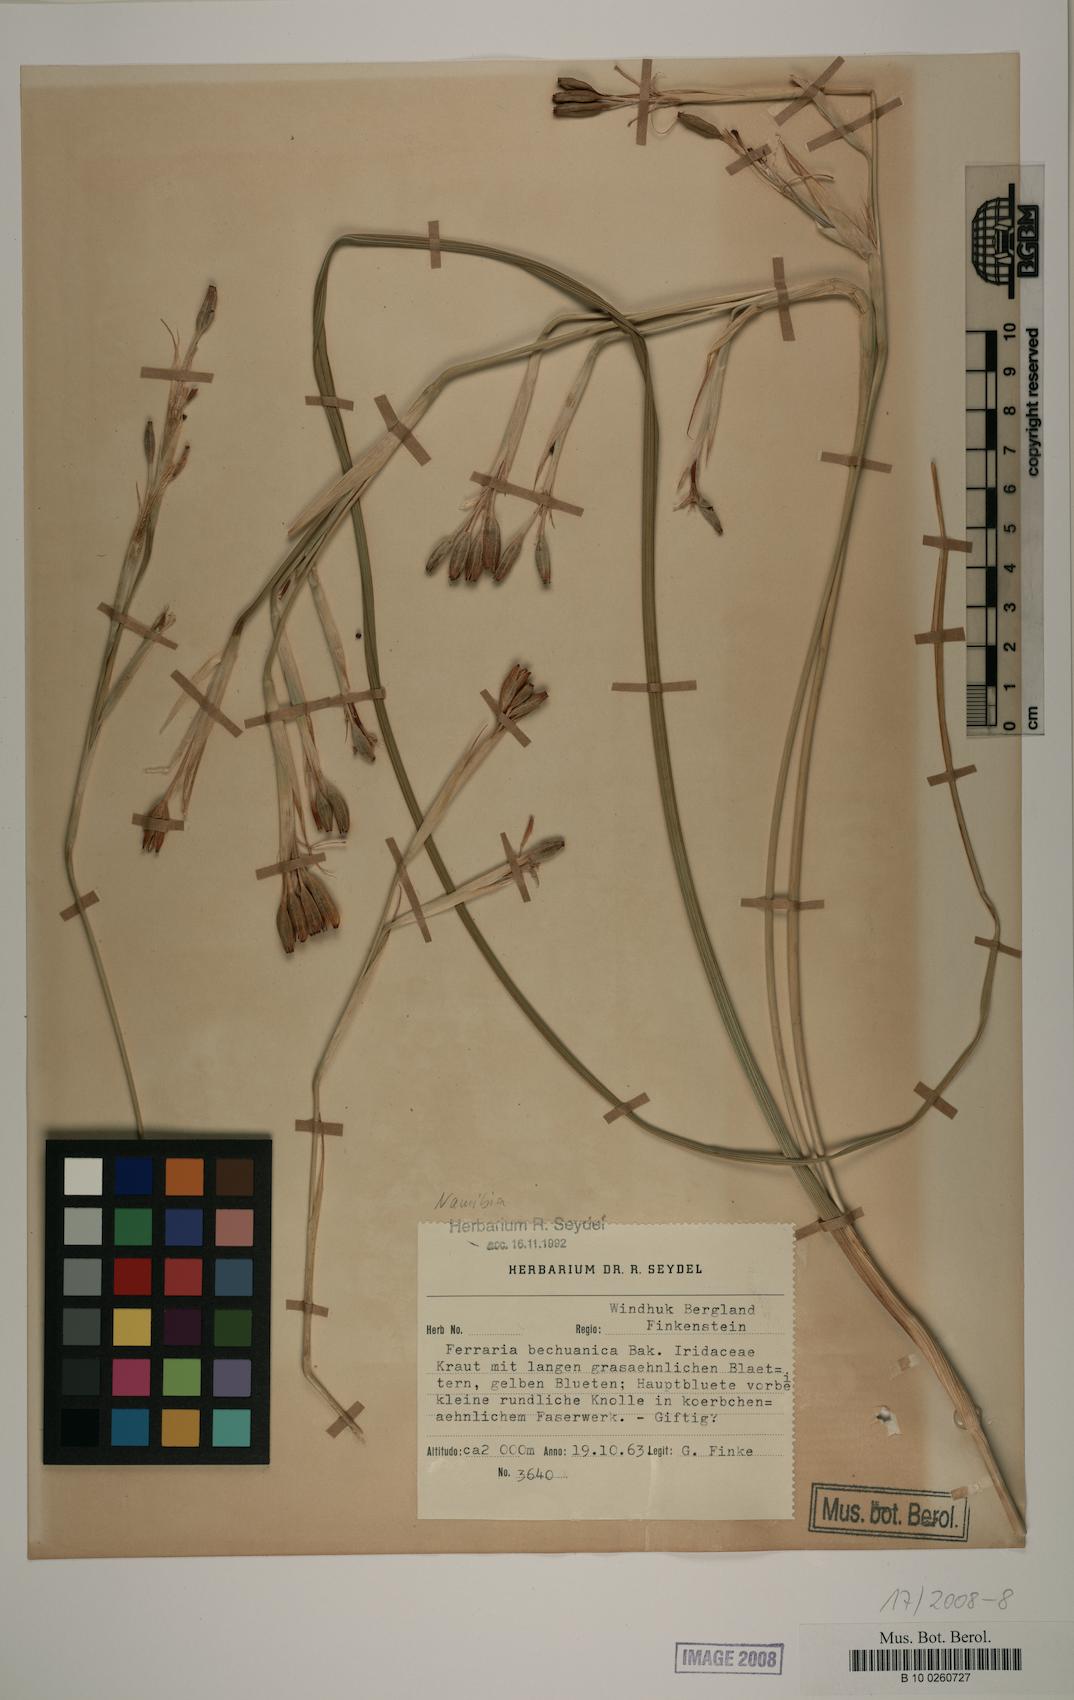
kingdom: Plantae
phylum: Tracheophyta
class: Liliopsida
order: Asparagales
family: Iridaceae
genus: Ferraria
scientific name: Ferraria glutinosa
